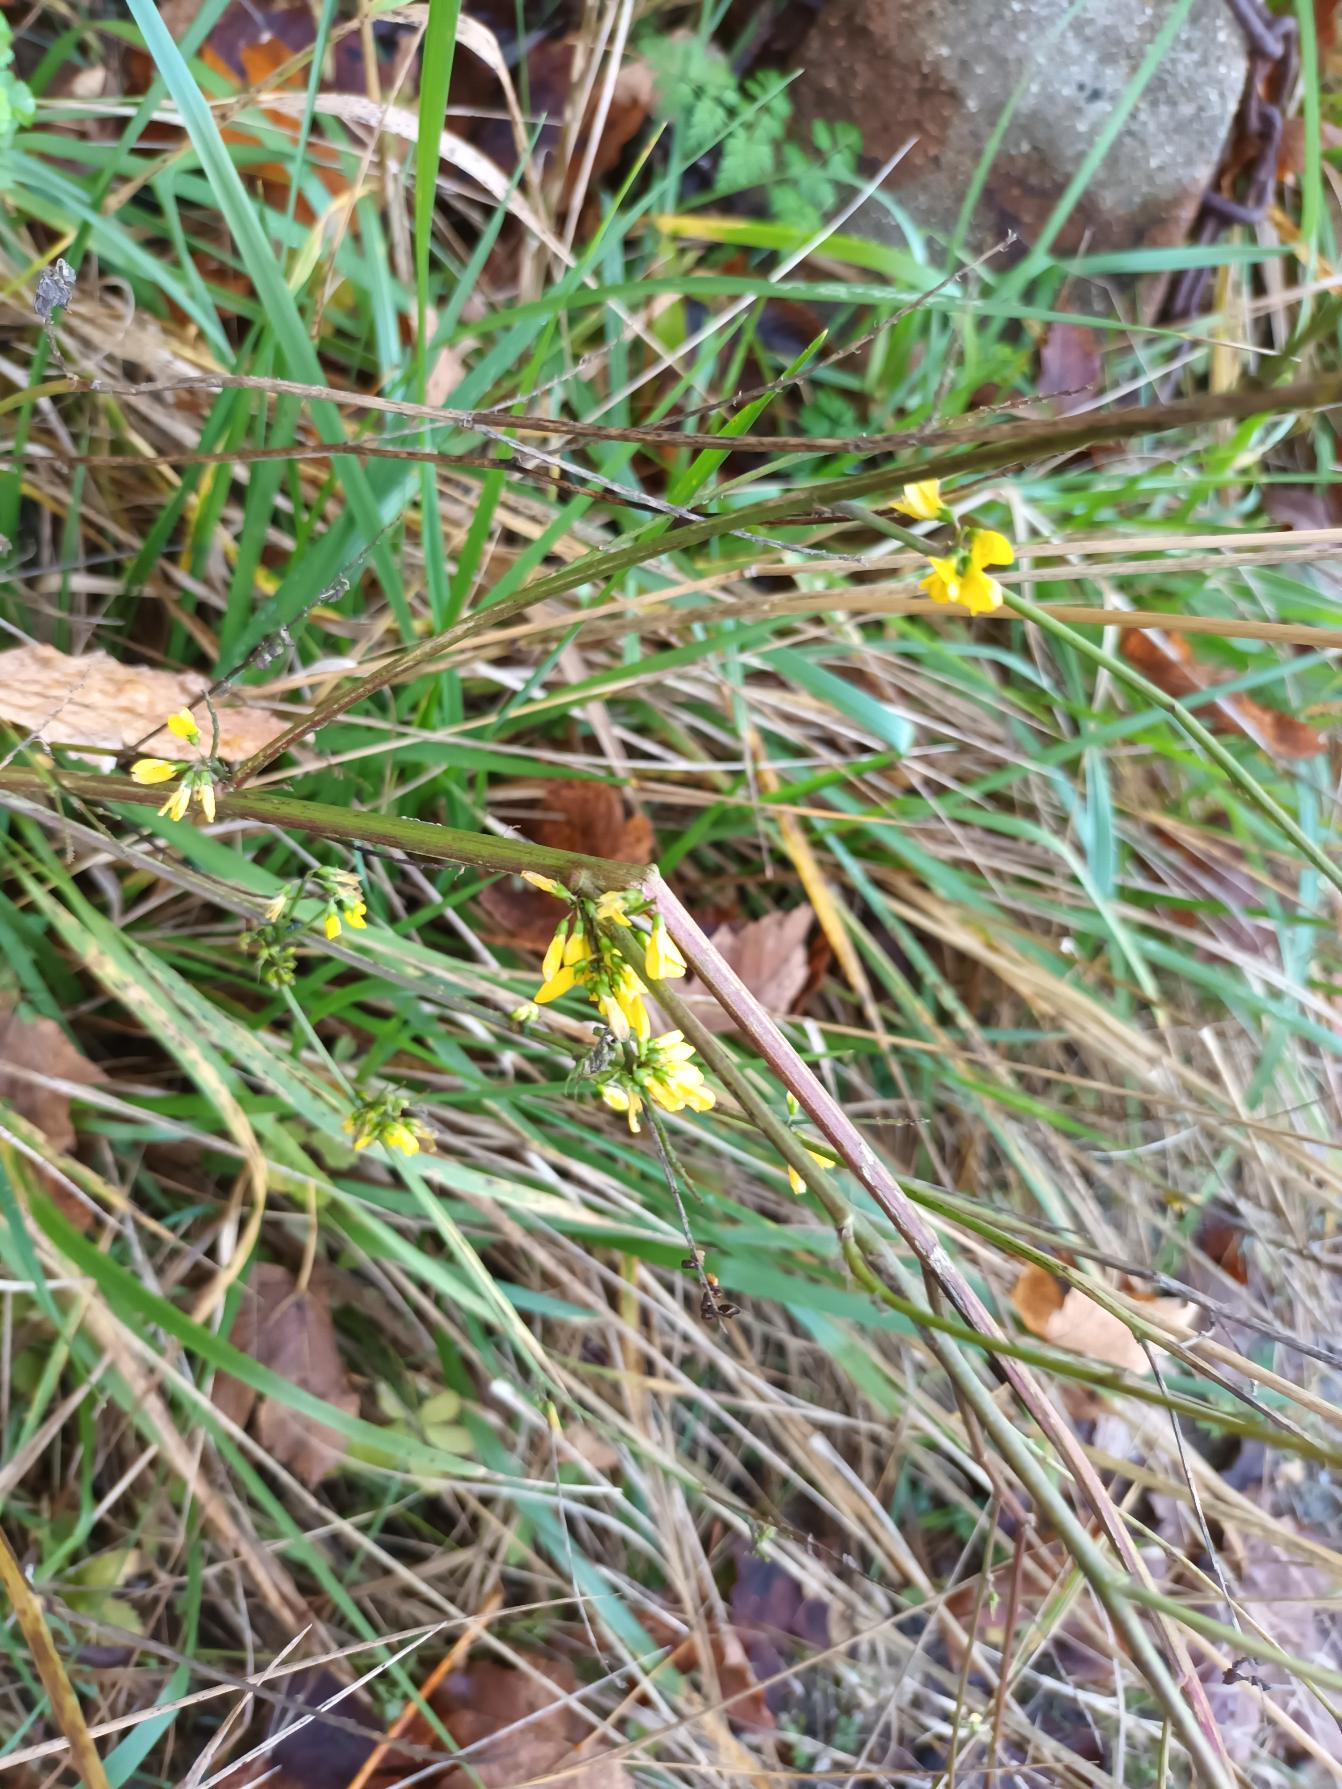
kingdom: Plantae
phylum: Tracheophyta
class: Magnoliopsida
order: Fabales
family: Fabaceae
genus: Melilotus
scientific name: Melilotus altissimus
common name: Høj stenkløver
